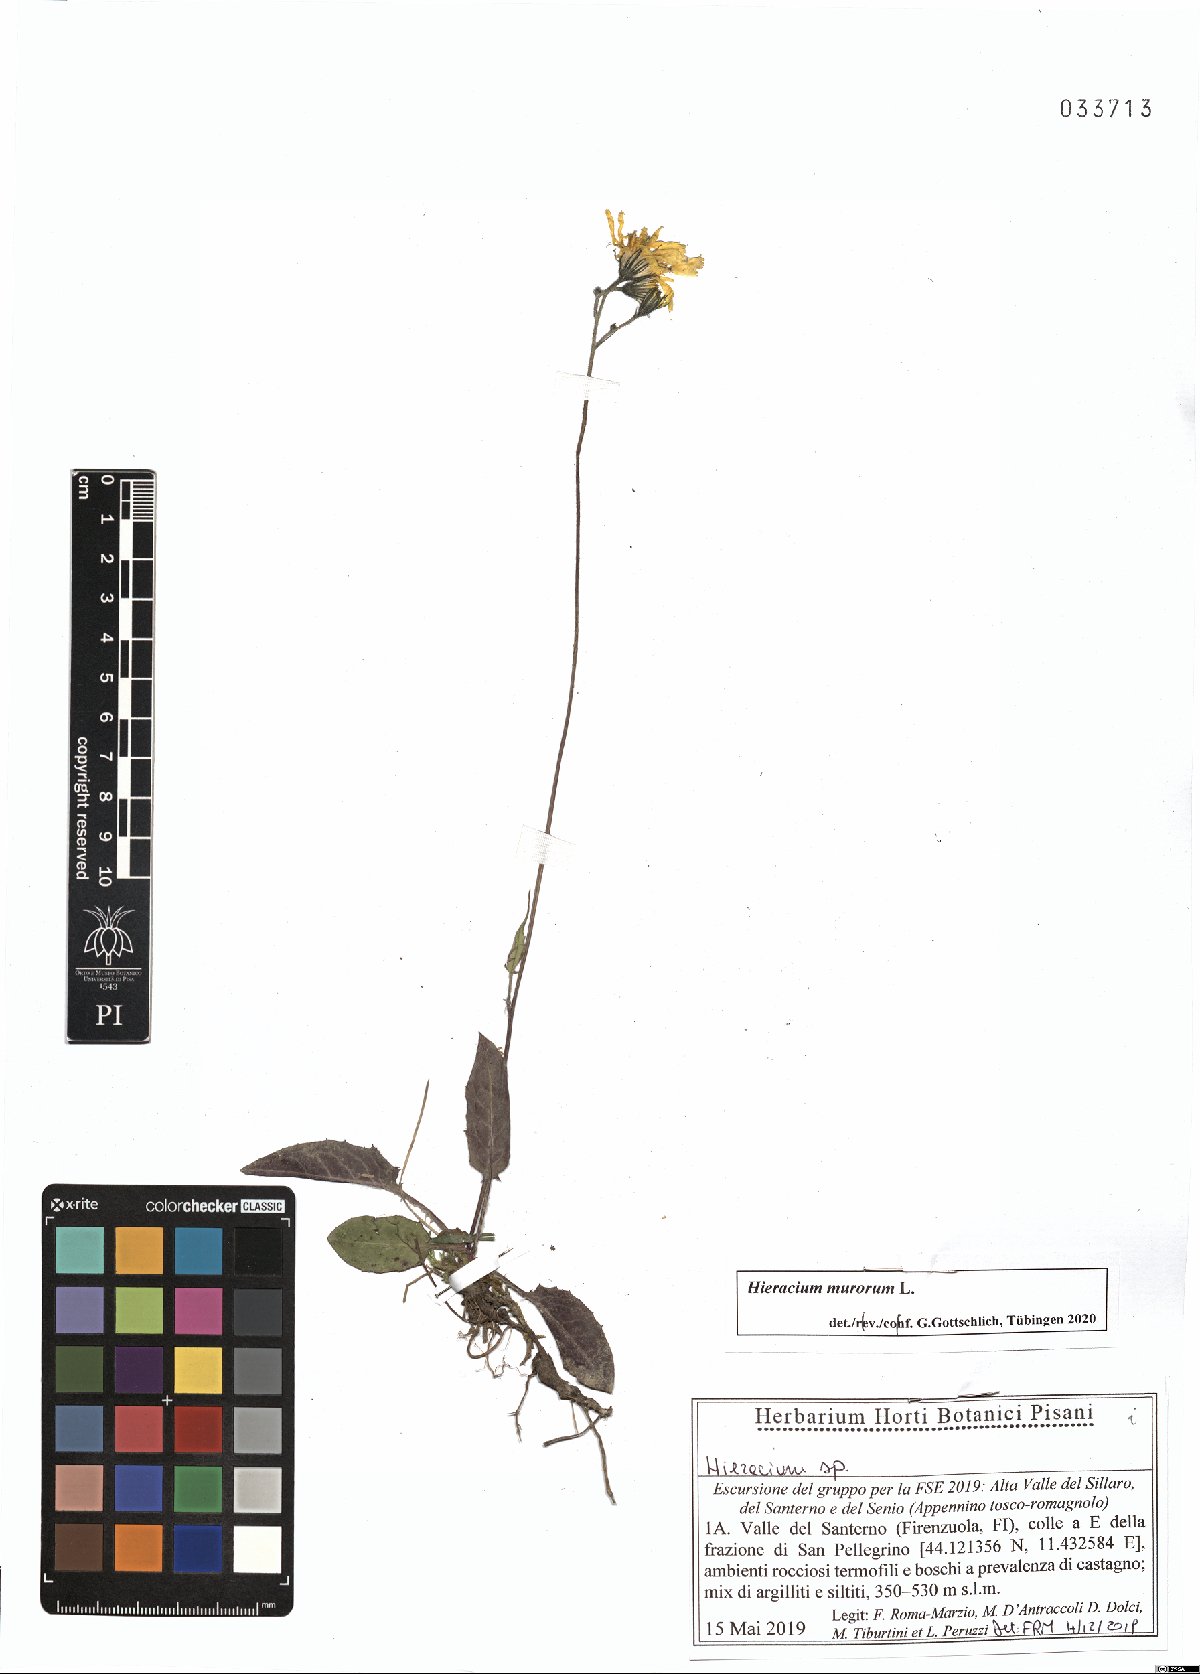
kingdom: Plantae
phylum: Tracheophyta
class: Magnoliopsida
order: Asterales
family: Asteraceae
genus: Hieracium
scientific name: Hieracium murorum
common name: Wall hawkweed
